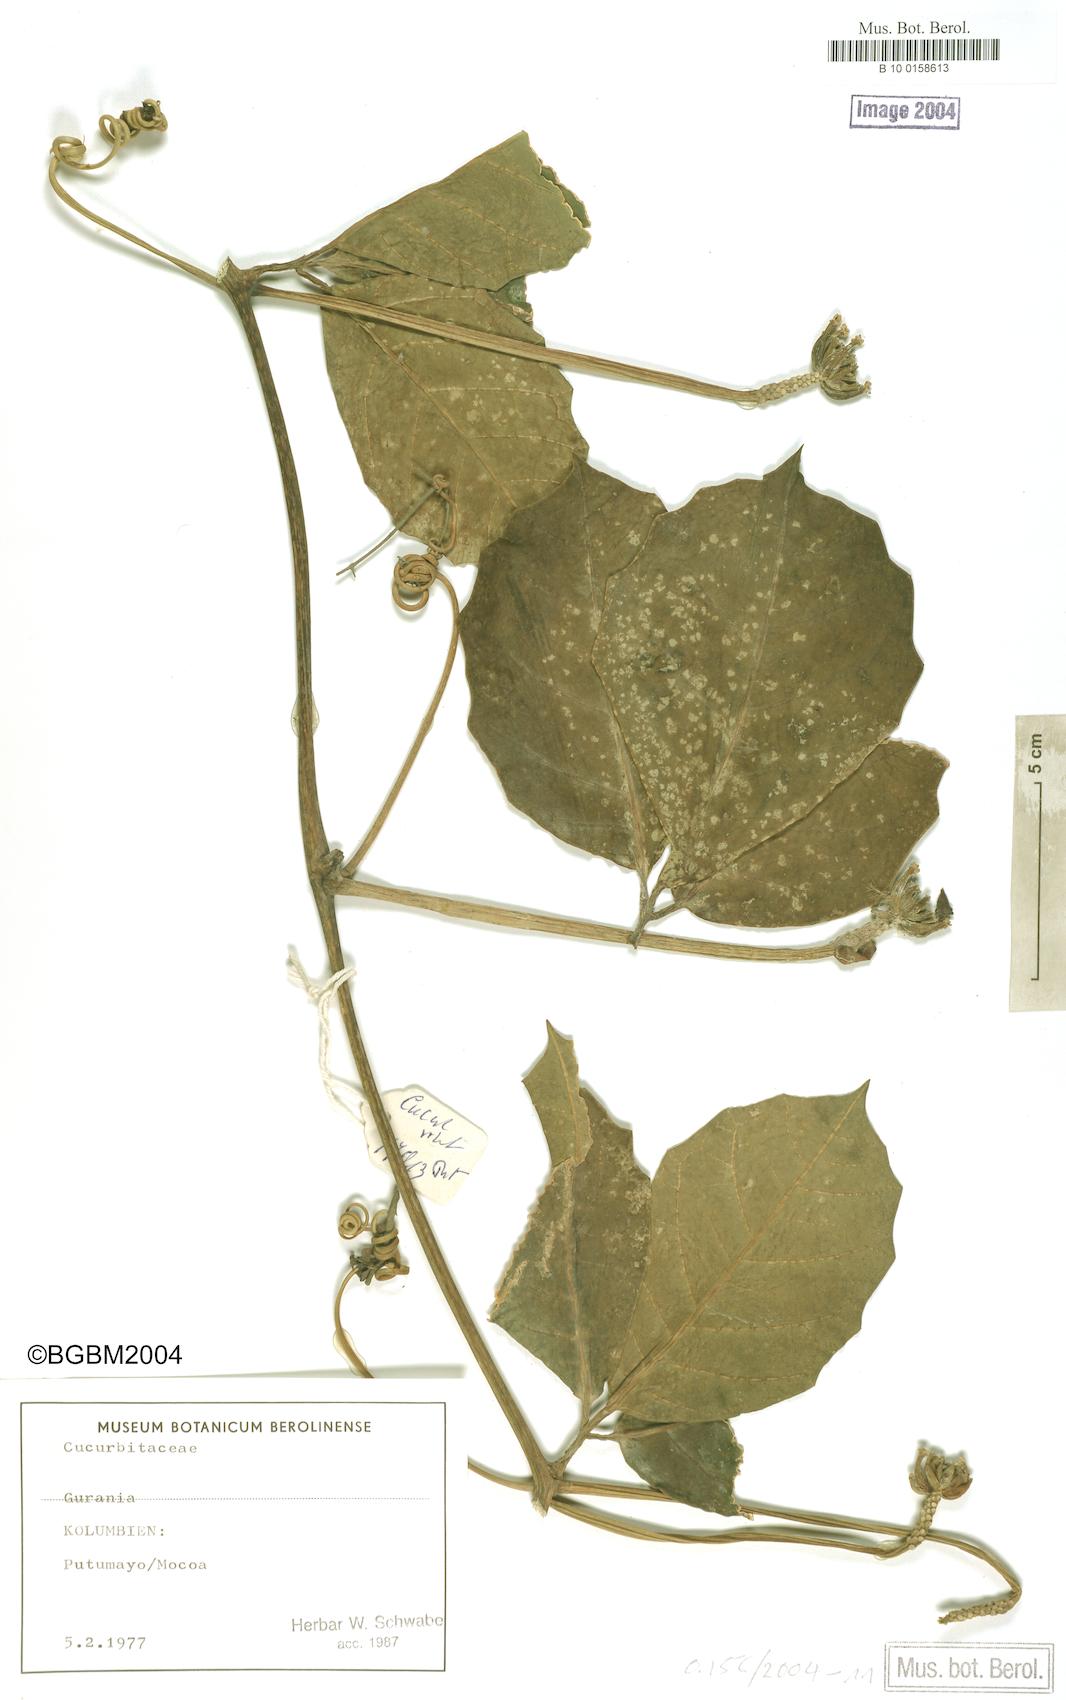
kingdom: Plantae
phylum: Tracheophyta
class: Magnoliopsida
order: Cucurbitales
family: Cucurbitaceae
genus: Psiguria
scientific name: Psiguria
